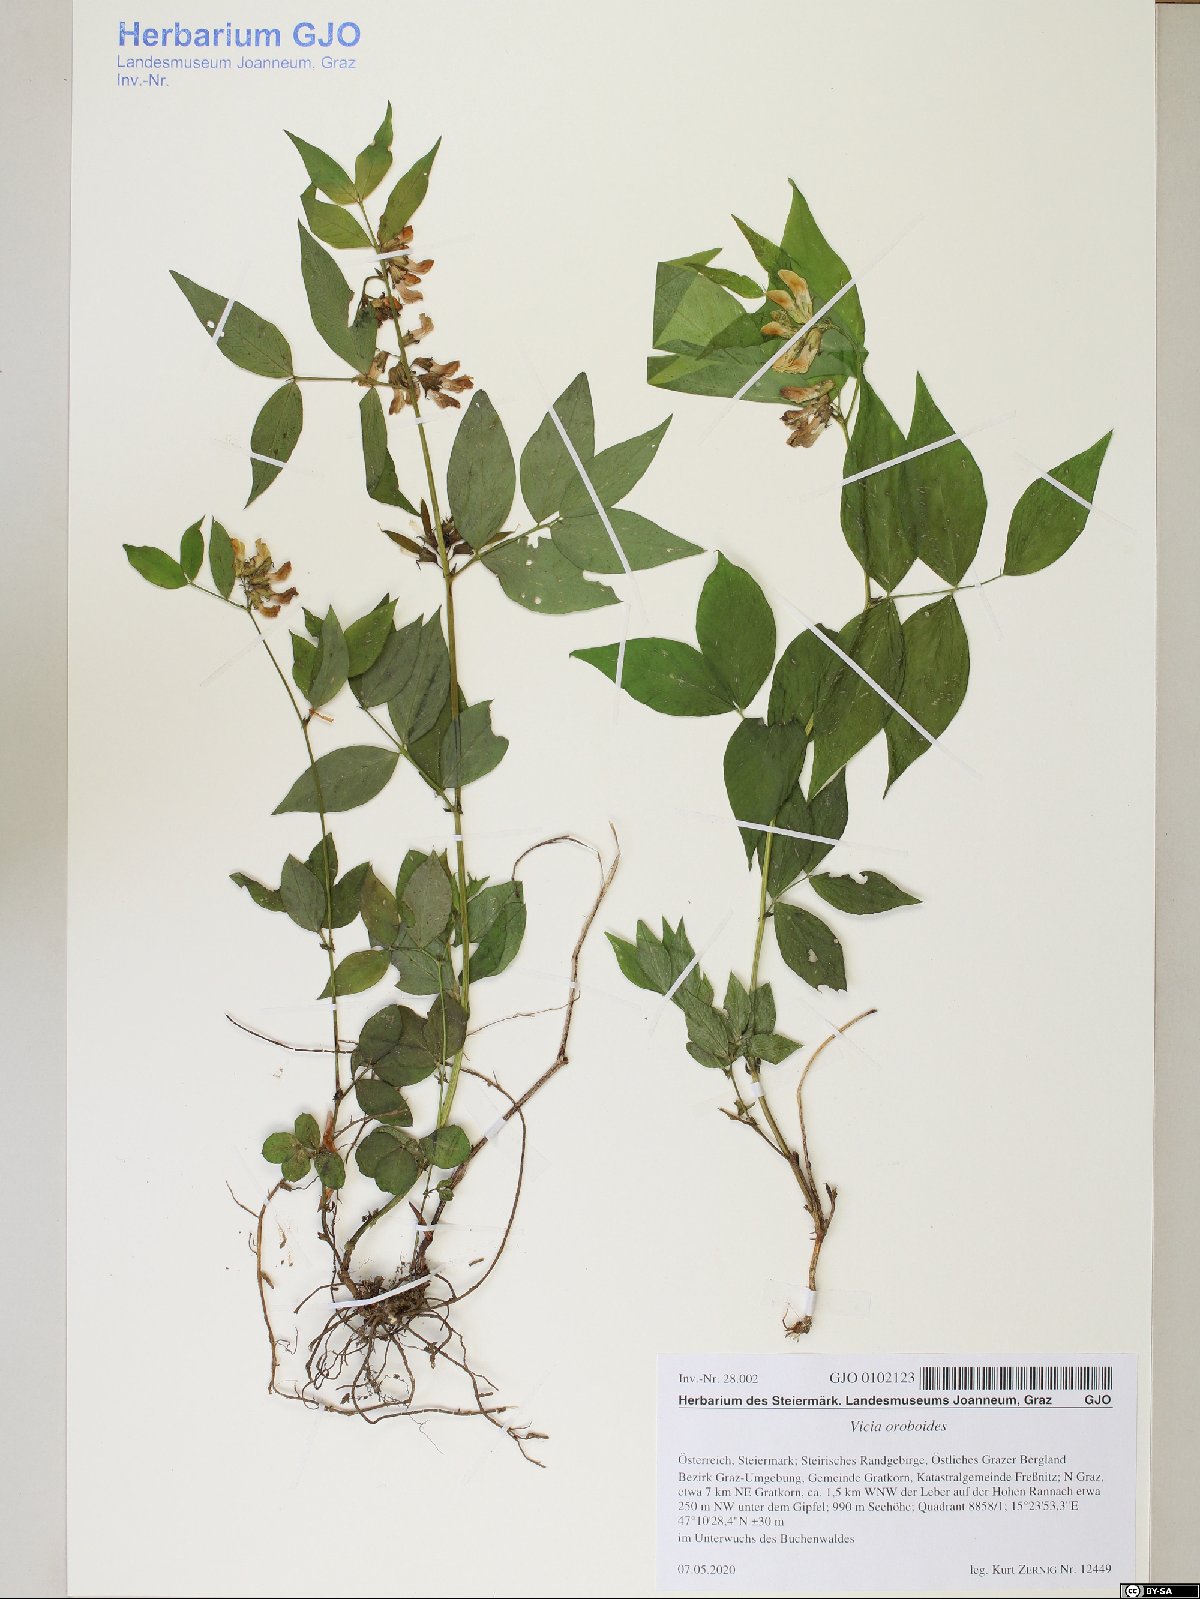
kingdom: Plantae
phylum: Tracheophyta
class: Magnoliopsida
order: Fabales
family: Fabaceae
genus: Vicia
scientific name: Vicia oroboides
